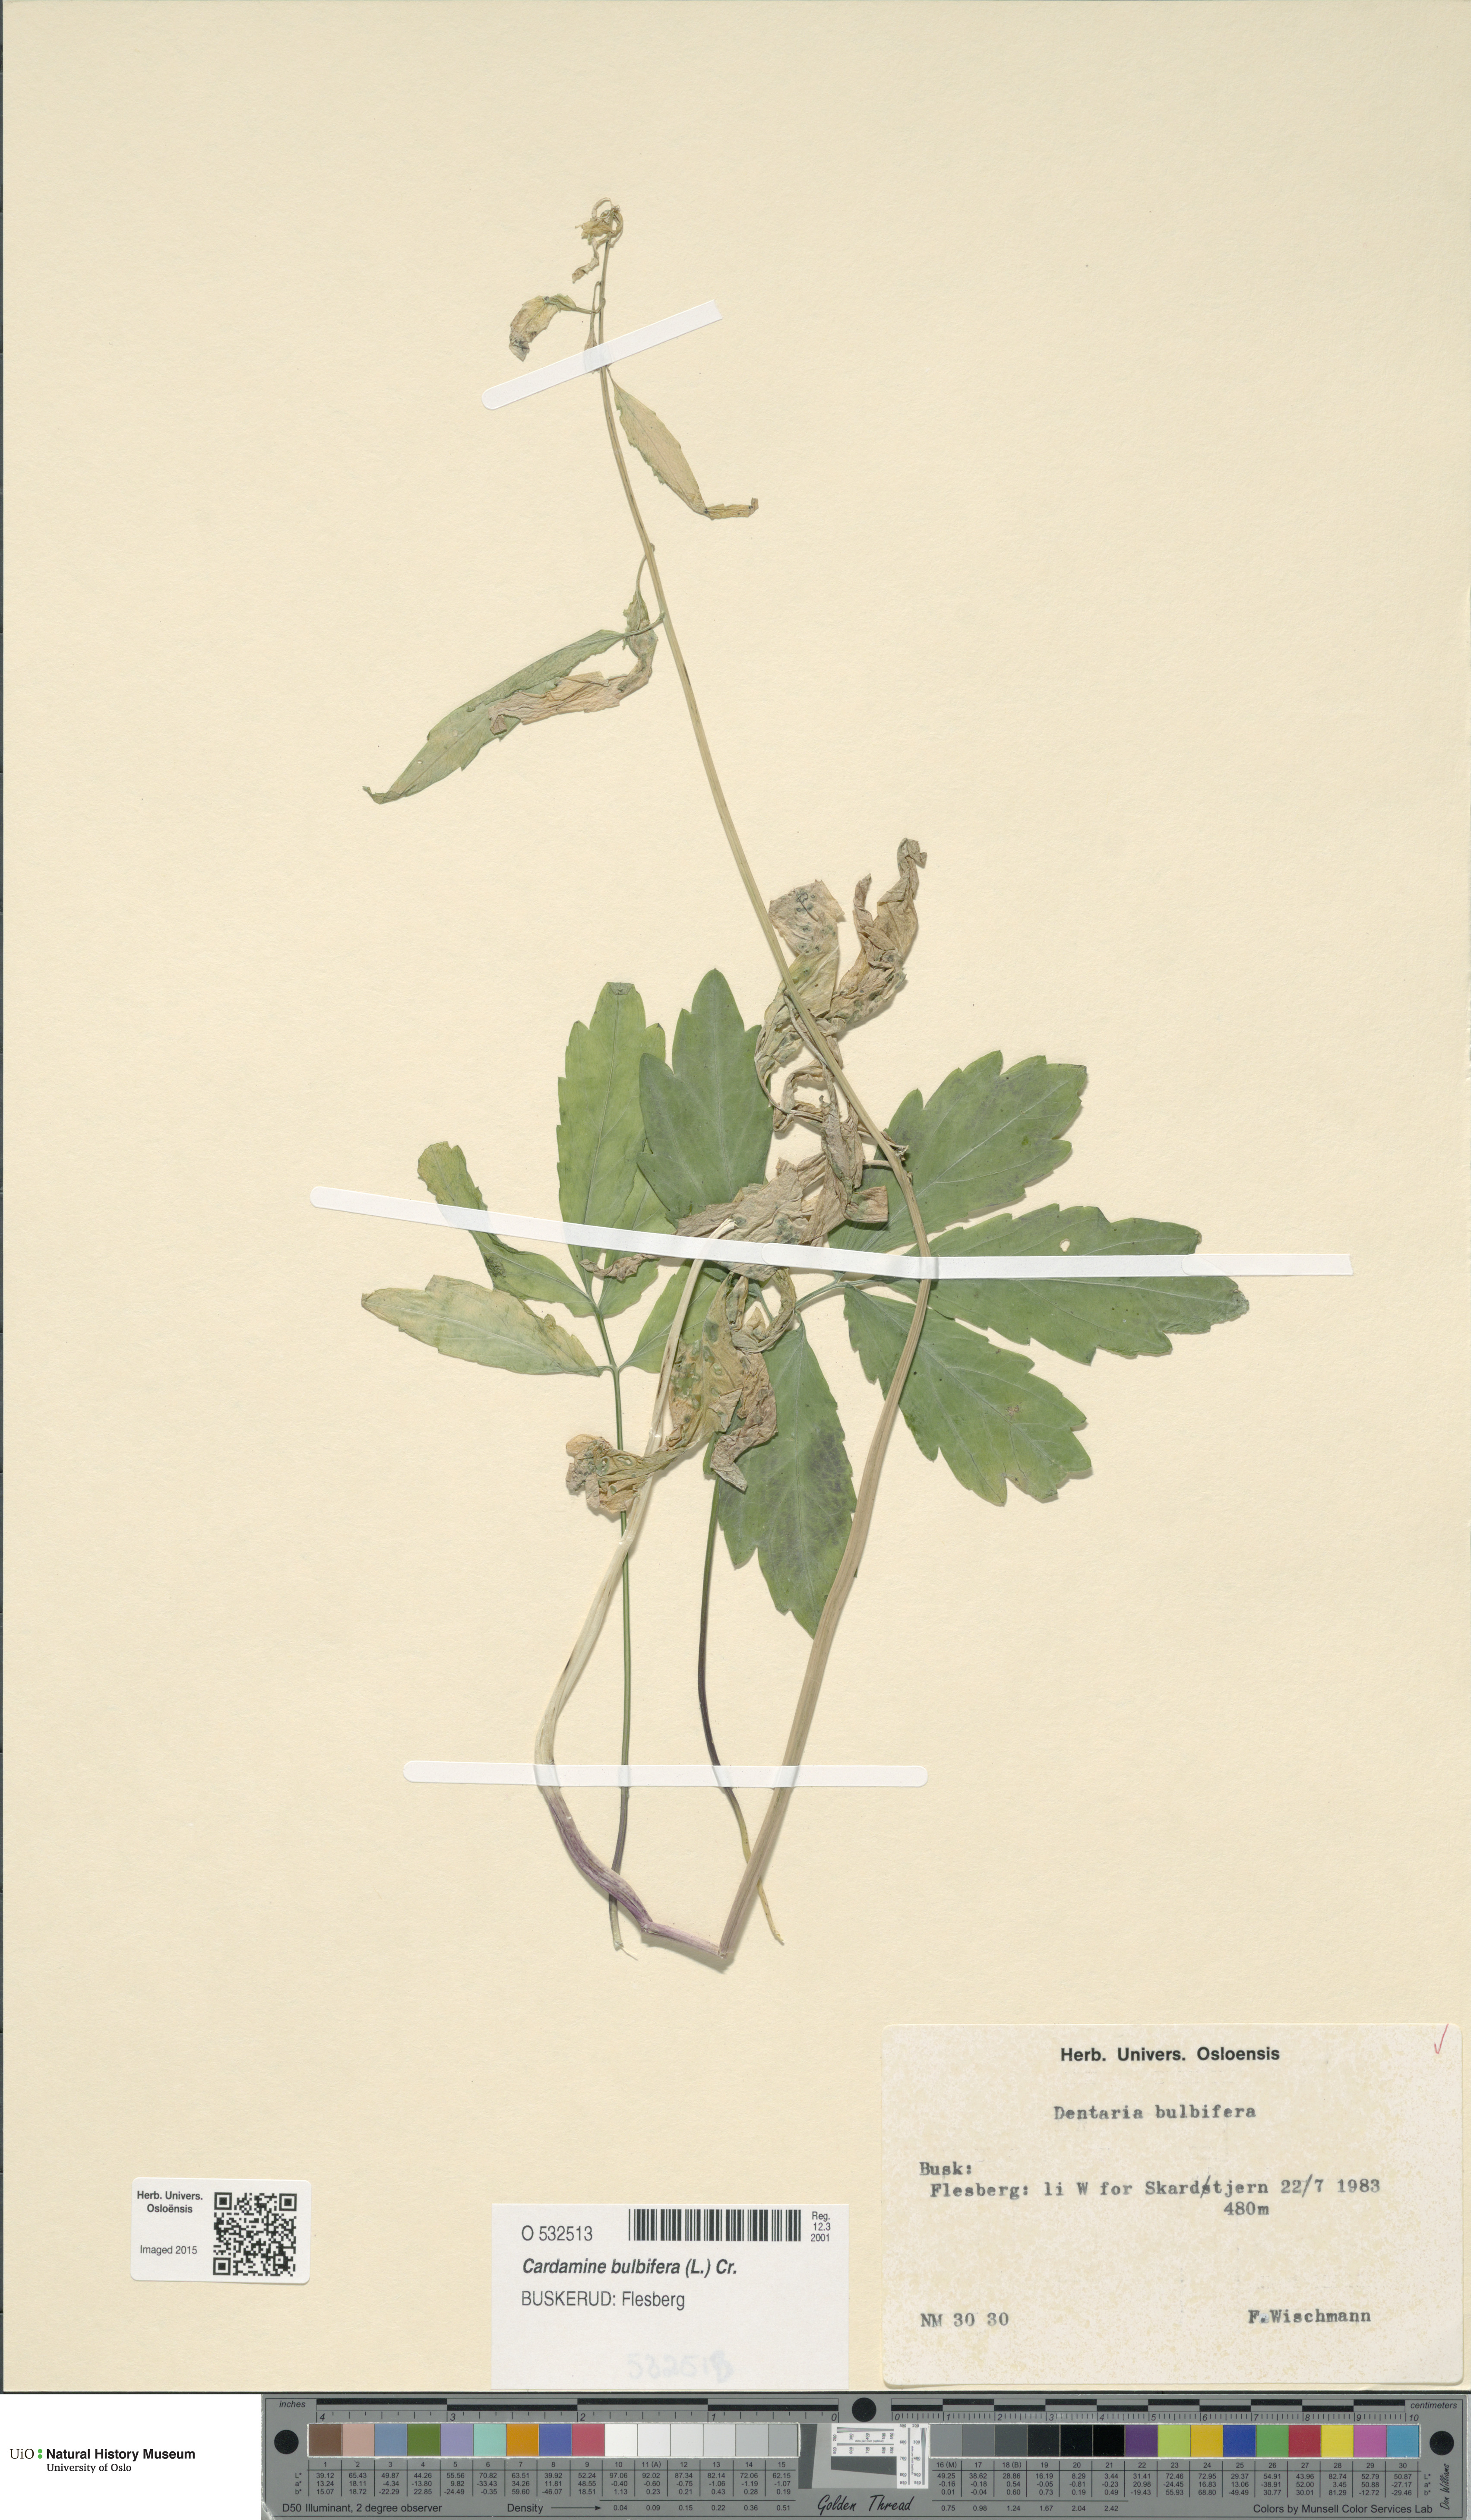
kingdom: Plantae
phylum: Tracheophyta
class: Magnoliopsida
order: Brassicales
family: Brassicaceae
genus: Cardamine
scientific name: Cardamine bulbifera
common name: Coralroot bittercress
